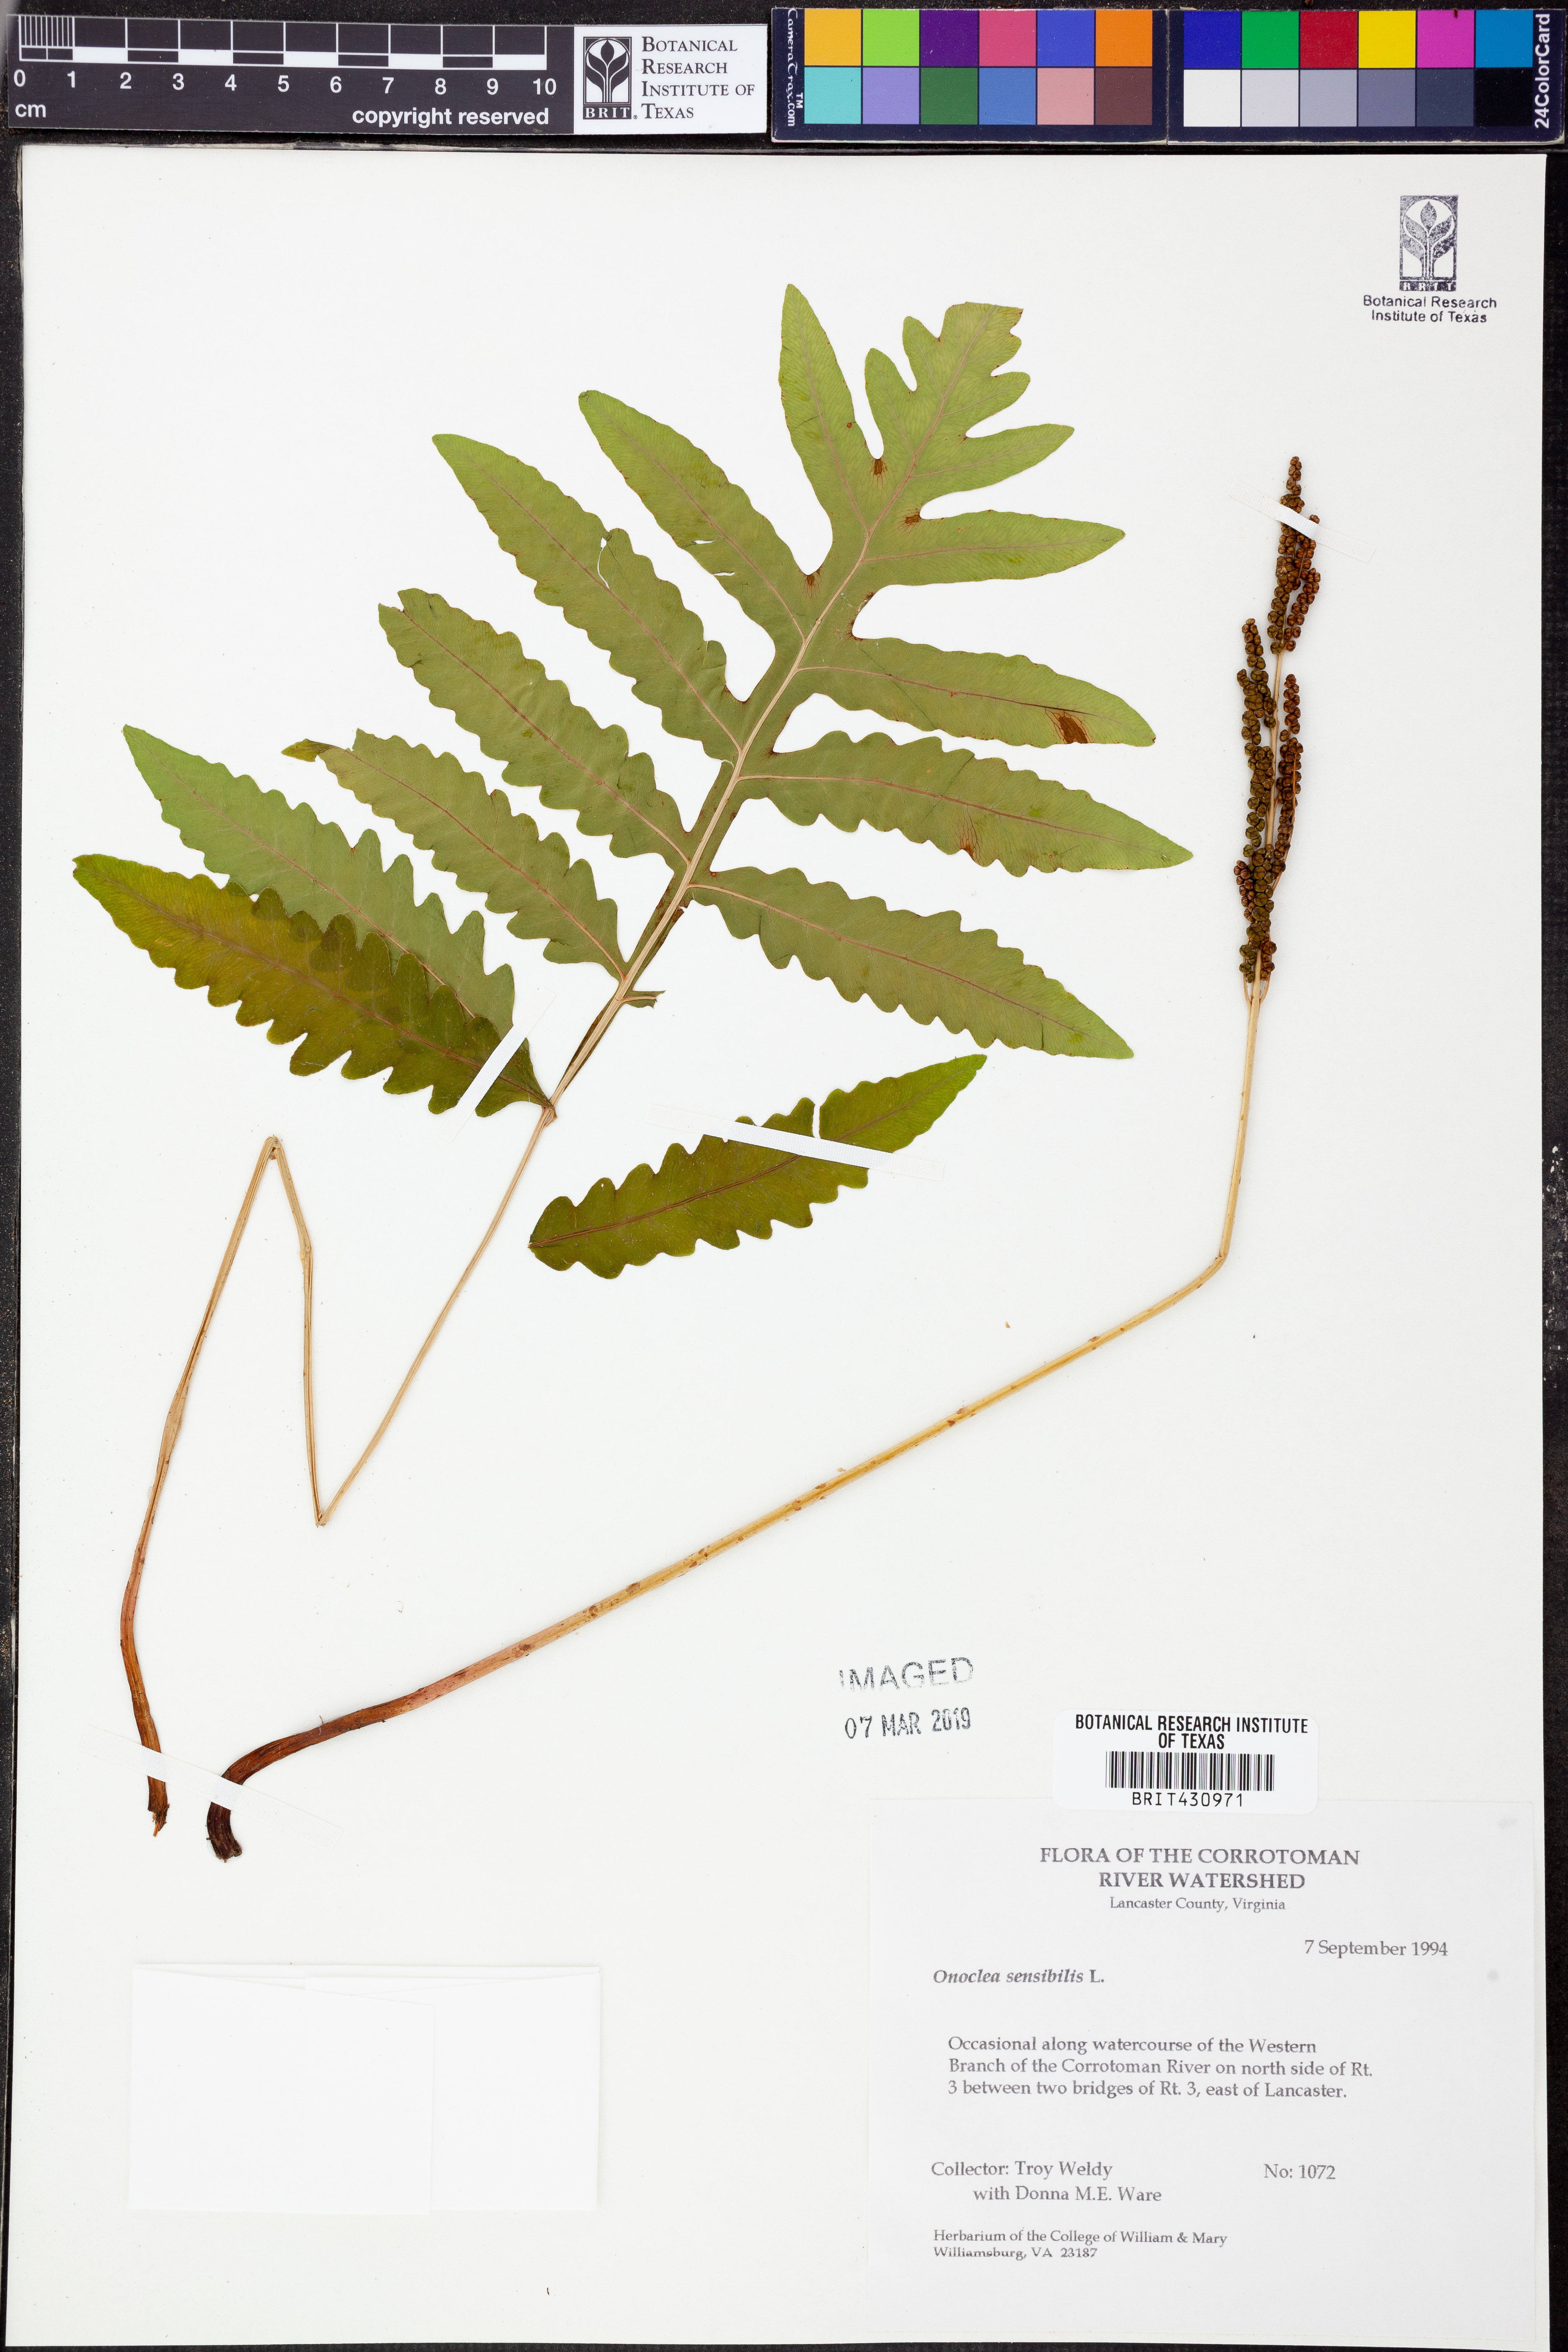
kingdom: Plantae
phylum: Tracheophyta
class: Polypodiopsida
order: Polypodiales
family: Onocleaceae
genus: Onoclea
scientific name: Onoclea sensibilis
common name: Sensitive fern
